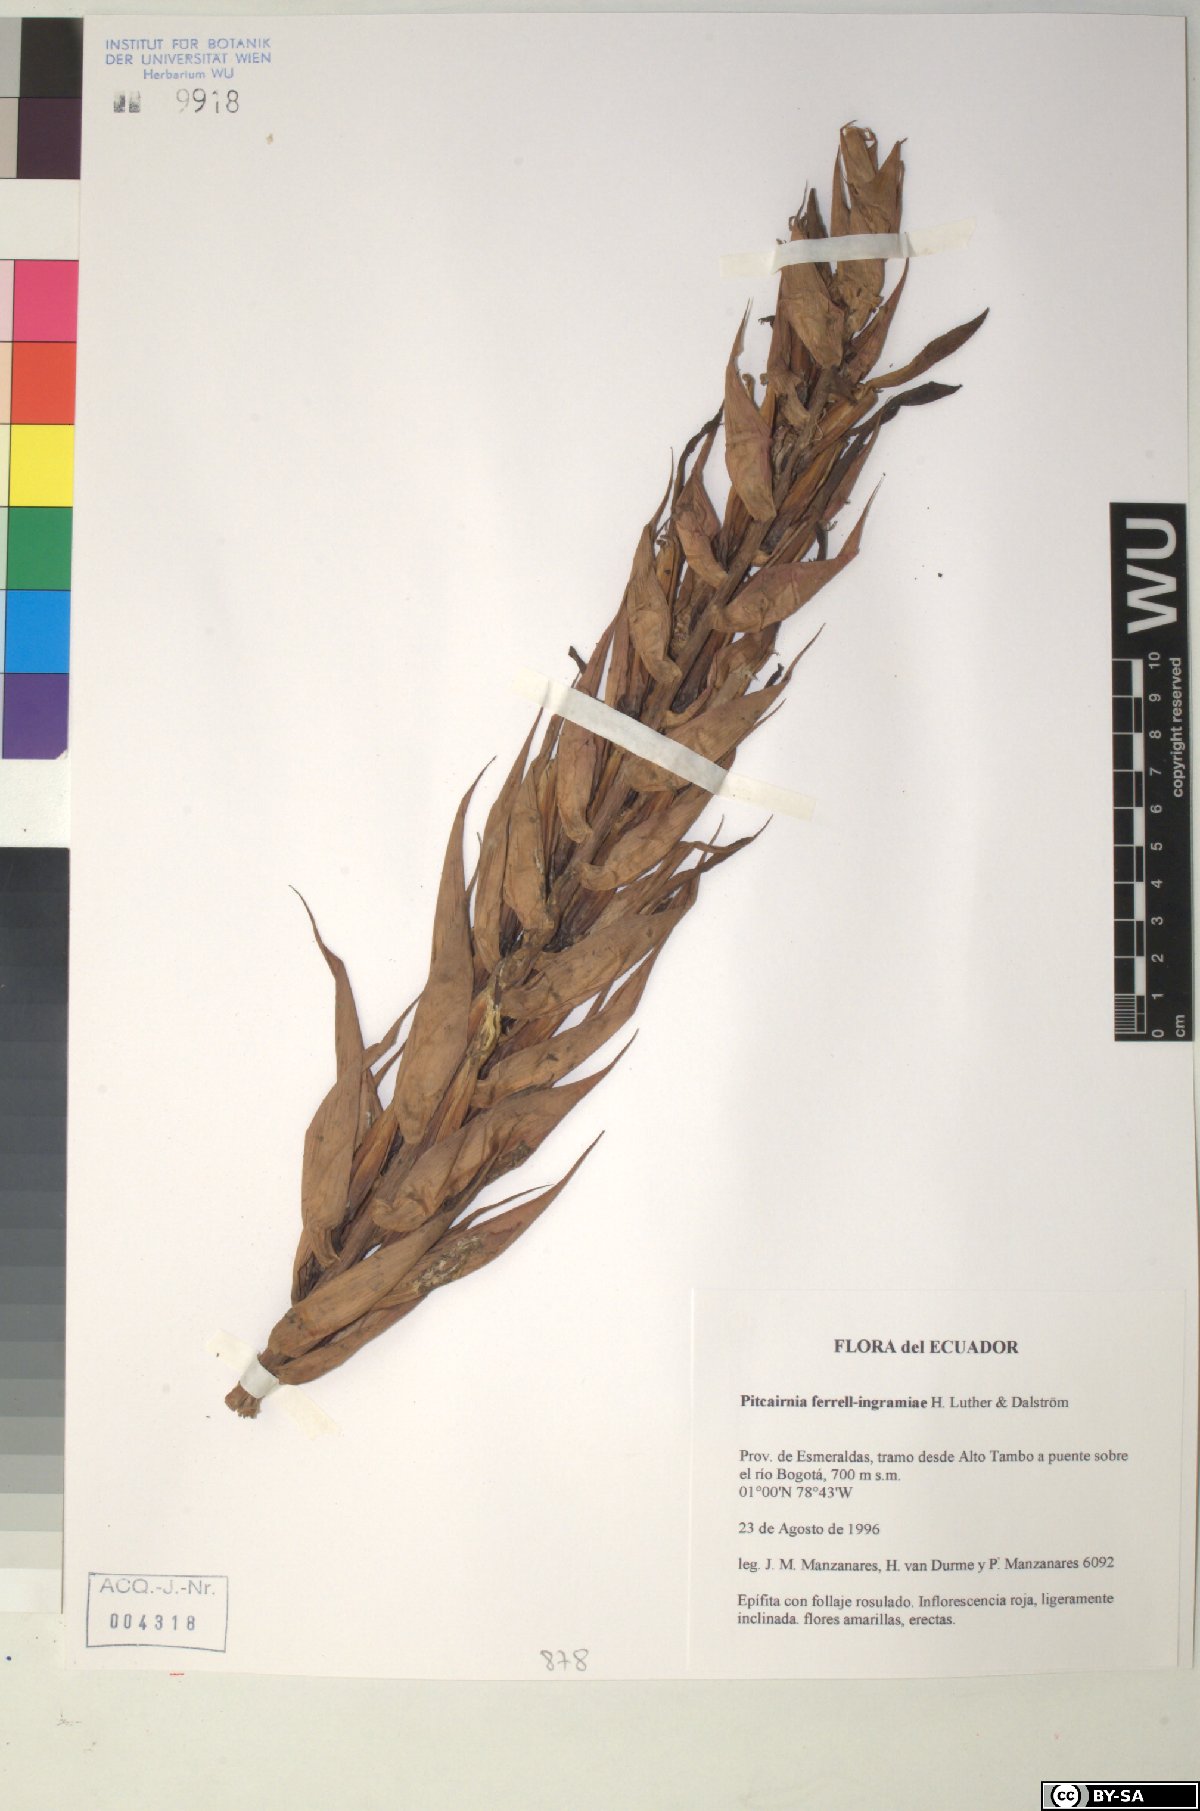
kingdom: Plantae
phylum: Tracheophyta
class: Liliopsida
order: Poales
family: Bromeliaceae
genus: Pitcairnia
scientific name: Pitcairnia ferrell-ingramiae
